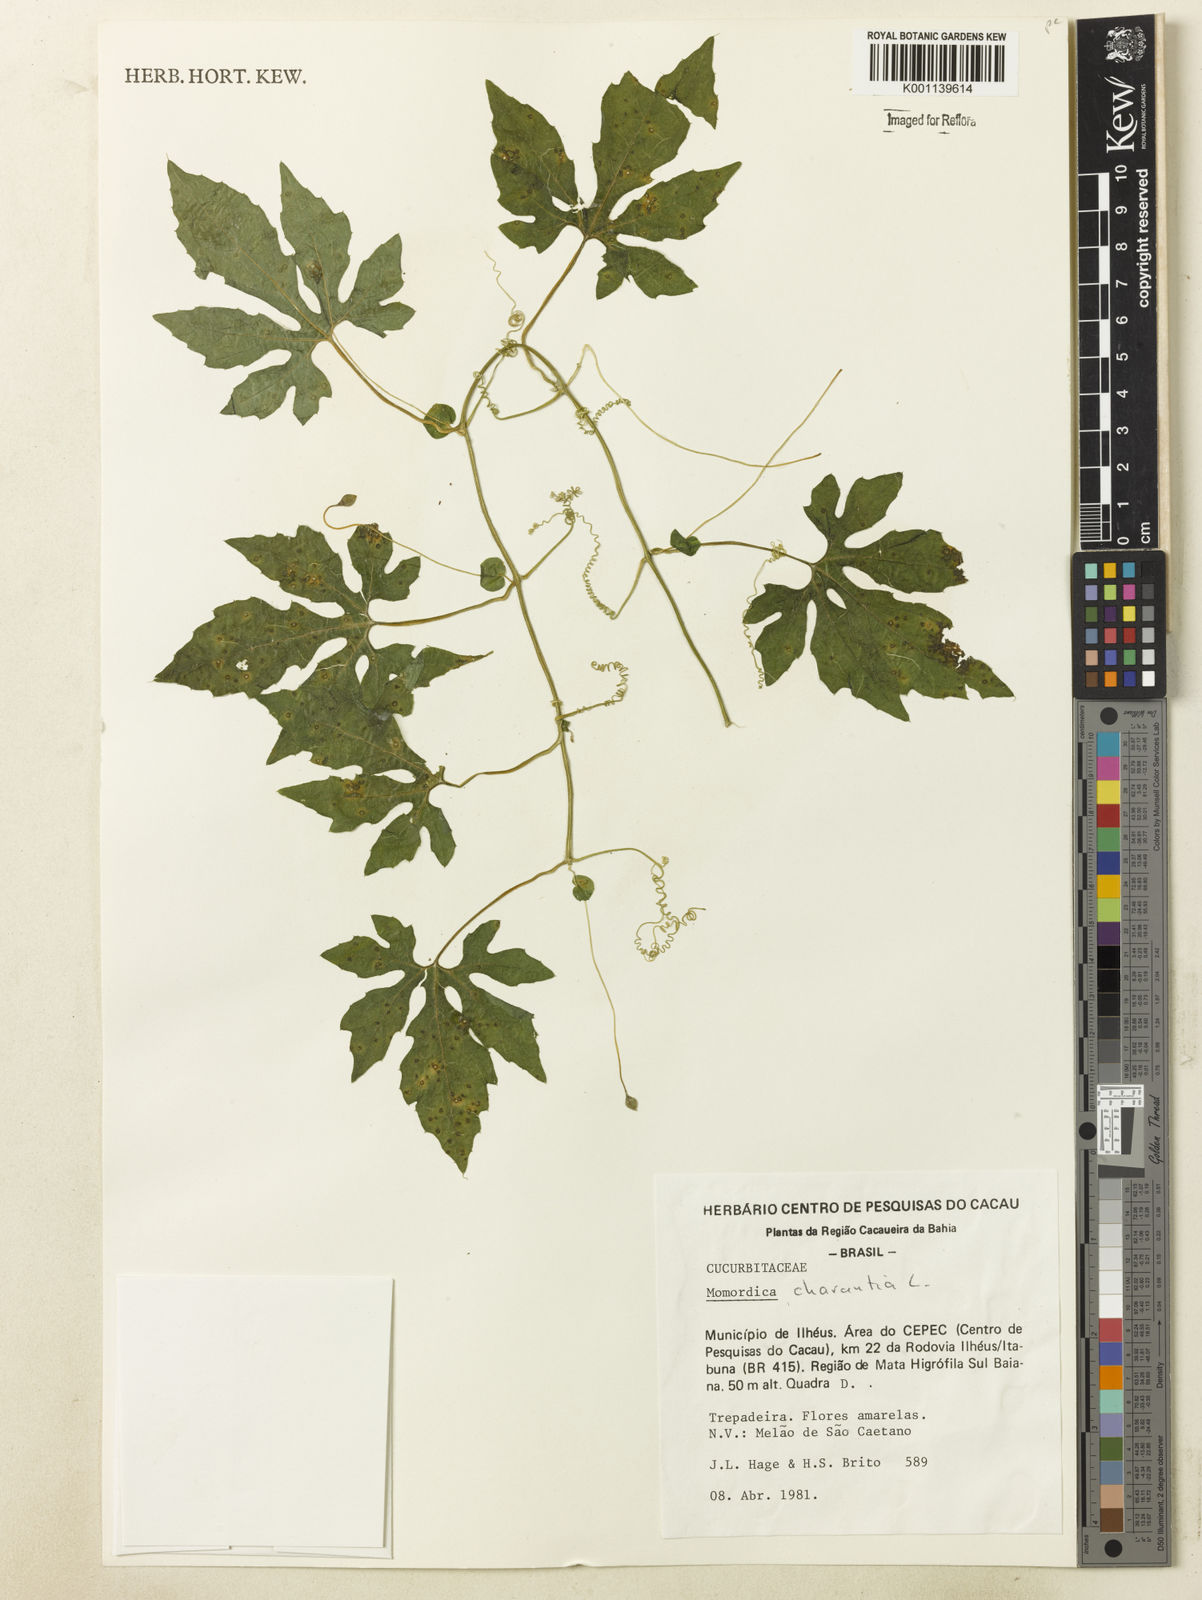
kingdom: Plantae
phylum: Tracheophyta
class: Magnoliopsida
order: Cucurbitales
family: Cucurbitaceae
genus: Momordica
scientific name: Momordica charantia
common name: Balsampear
